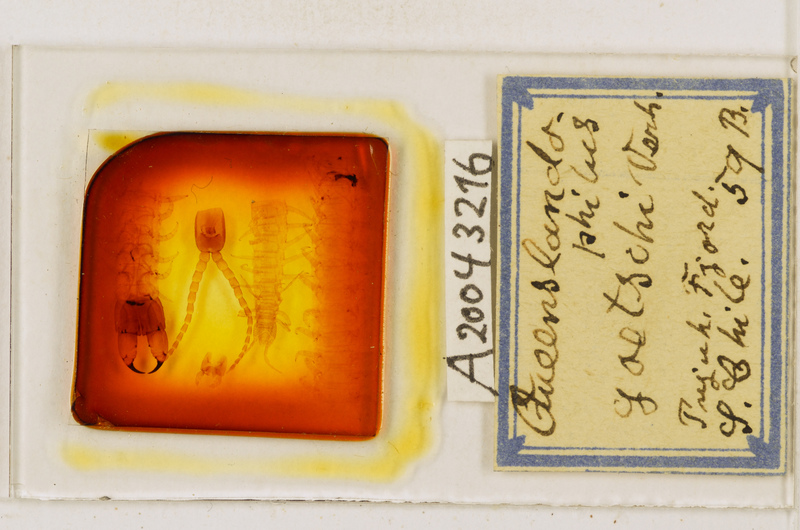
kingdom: Animalia
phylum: Arthropoda
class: Chilopoda
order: Geophilomorpha
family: Geophilidae
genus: Queenslandophilus
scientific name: Queenslandophilus
